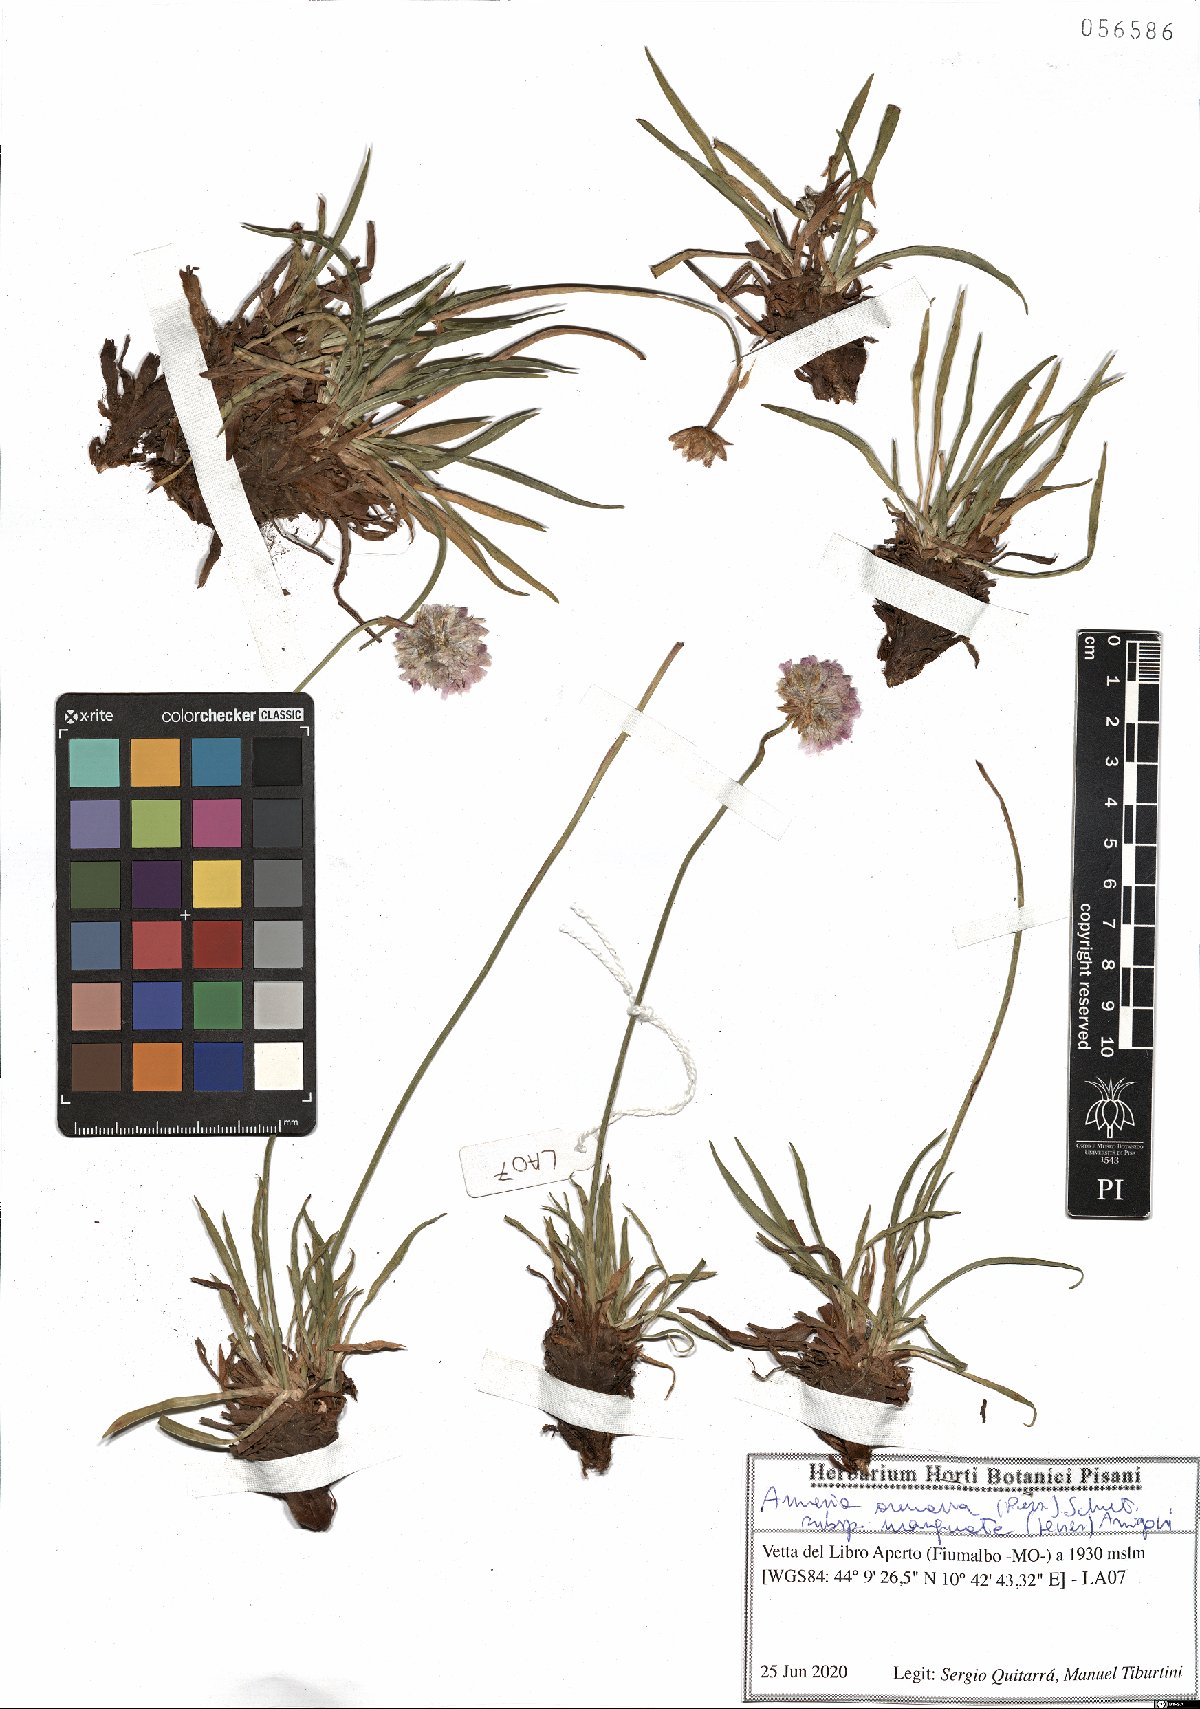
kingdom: Plantae
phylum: Tracheophyta
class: Magnoliopsida
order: Caryophyllales
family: Plumbaginaceae
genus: Armeria
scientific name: Armeria arenaria
